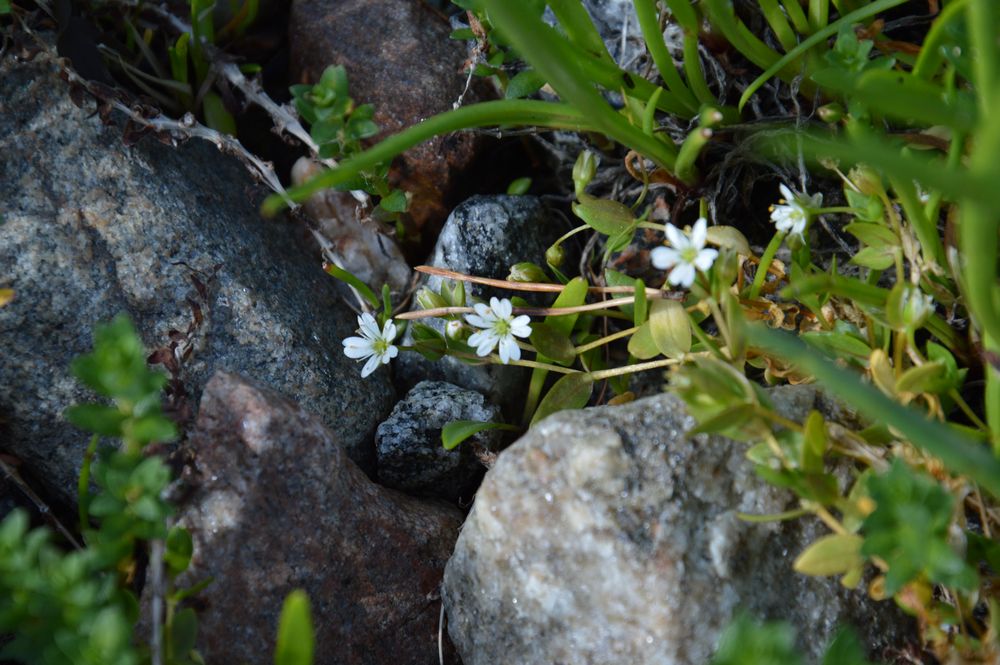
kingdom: Plantae
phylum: Tracheophyta
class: Magnoliopsida
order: Caryophyllales
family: Caryophyllaceae
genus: Stellaria
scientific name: Stellaria humifusa
